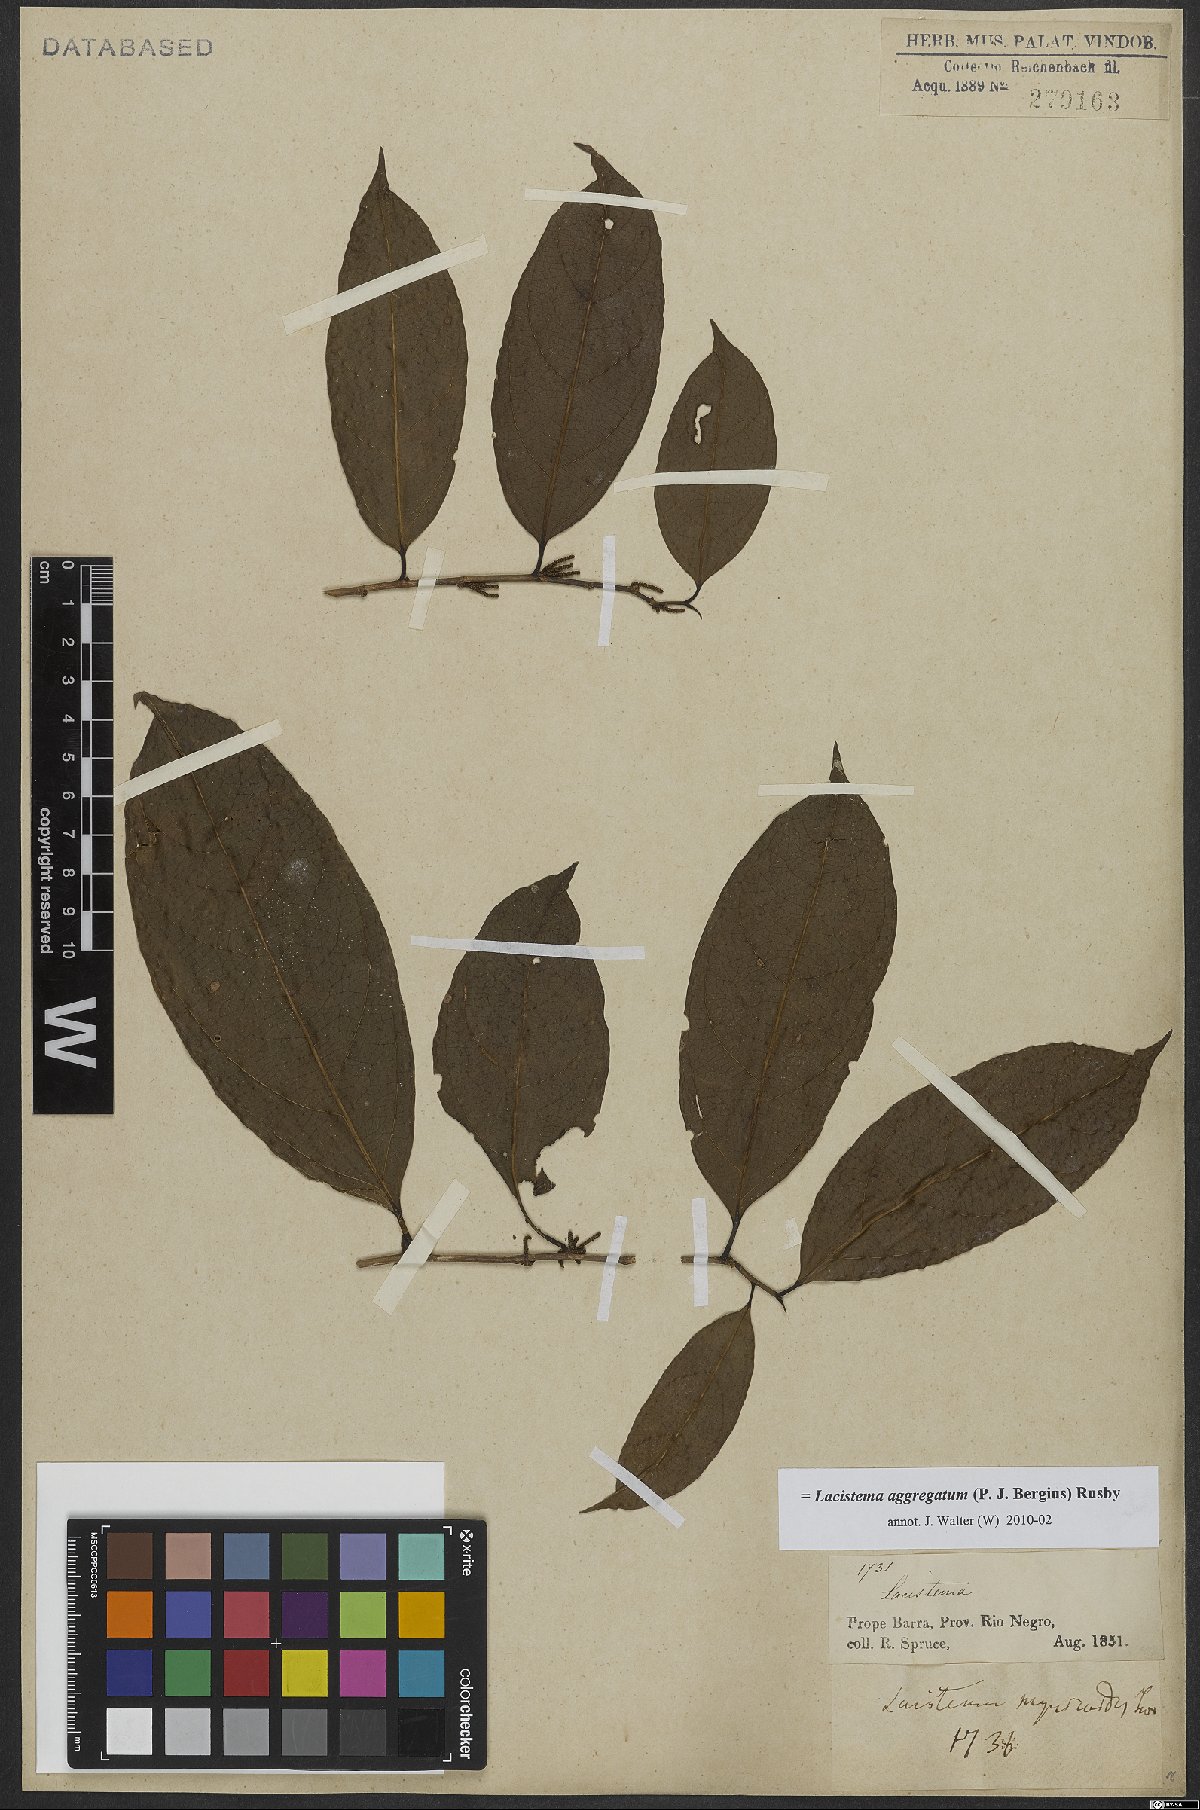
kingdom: Plantae
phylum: Tracheophyta
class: Magnoliopsida
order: Malpighiales
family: Lacistemataceae
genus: Lacistema
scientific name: Lacistema aggregatum
